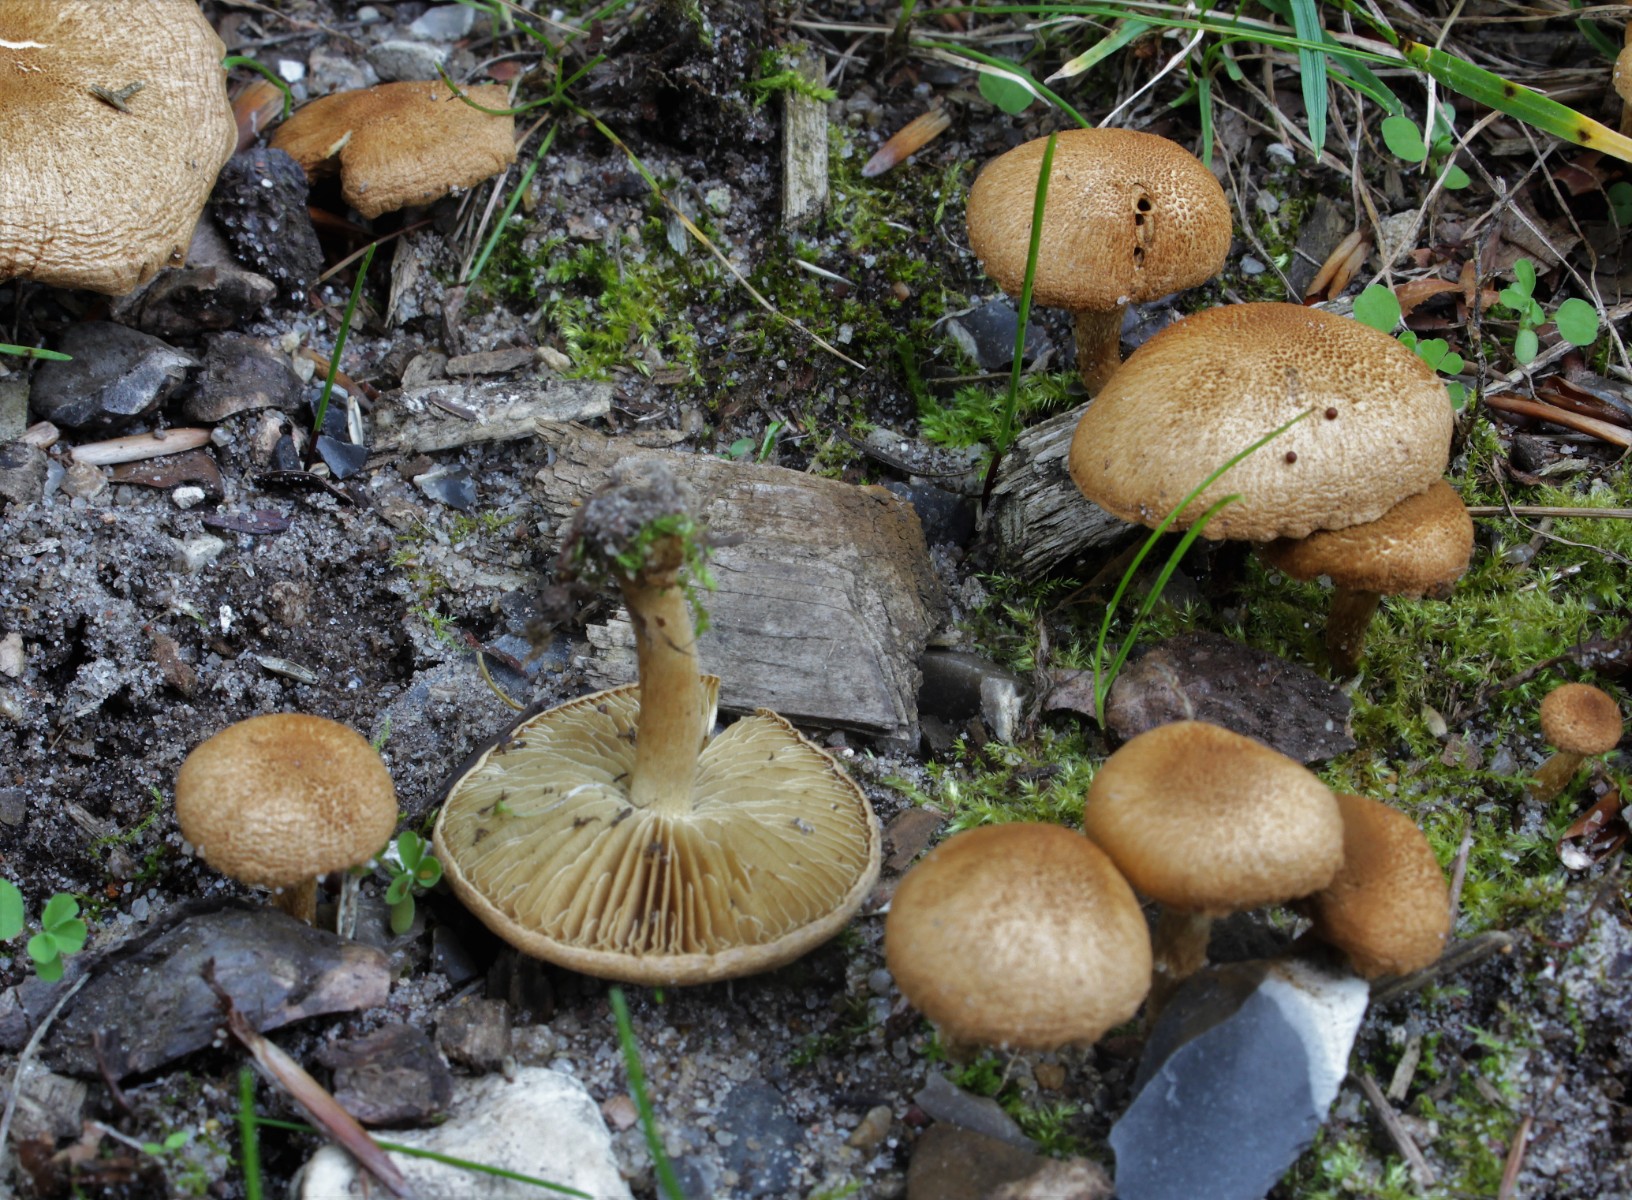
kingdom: Fungi
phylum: Basidiomycota
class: Agaricomycetes
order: Agaricales
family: Inocybaceae
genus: Inocybe
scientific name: Inocybe dulcamara
